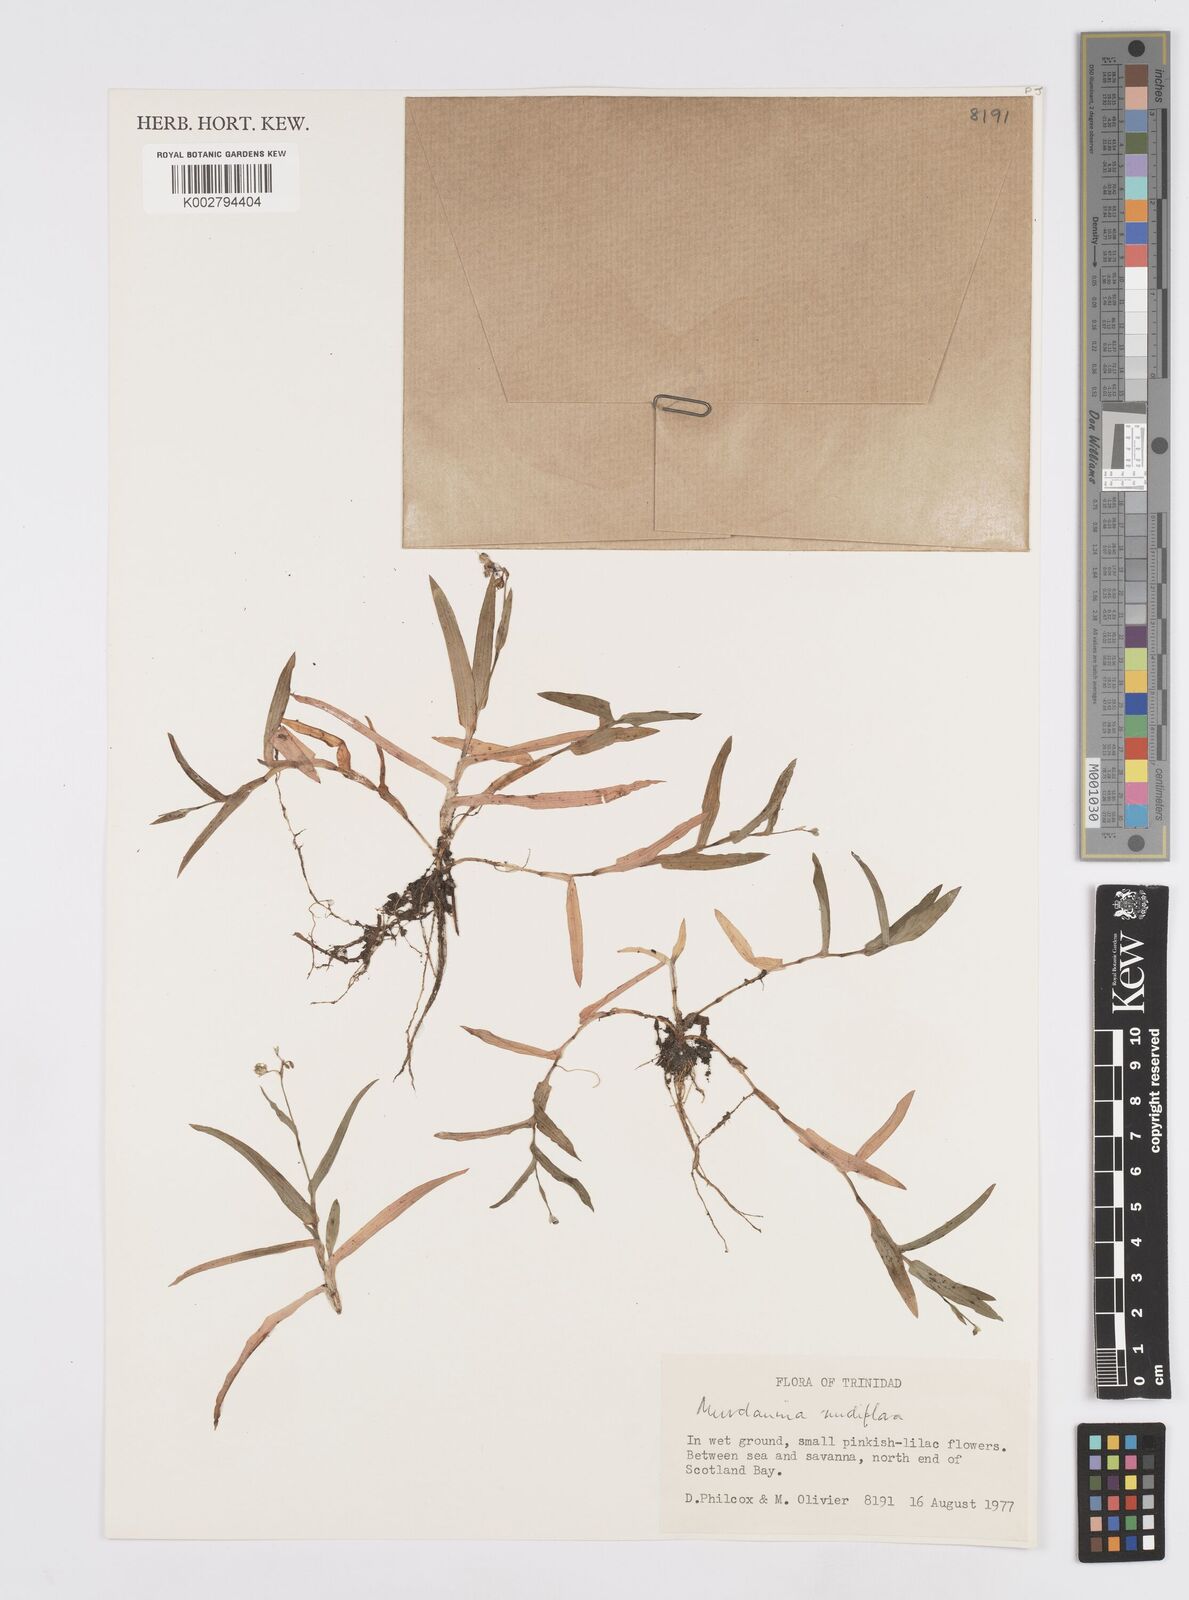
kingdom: Plantae
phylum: Tracheophyta
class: Liliopsida
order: Commelinales
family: Commelinaceae
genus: Murdannia
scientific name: Murdannia nudiflora
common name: Nakedstem dewflower
